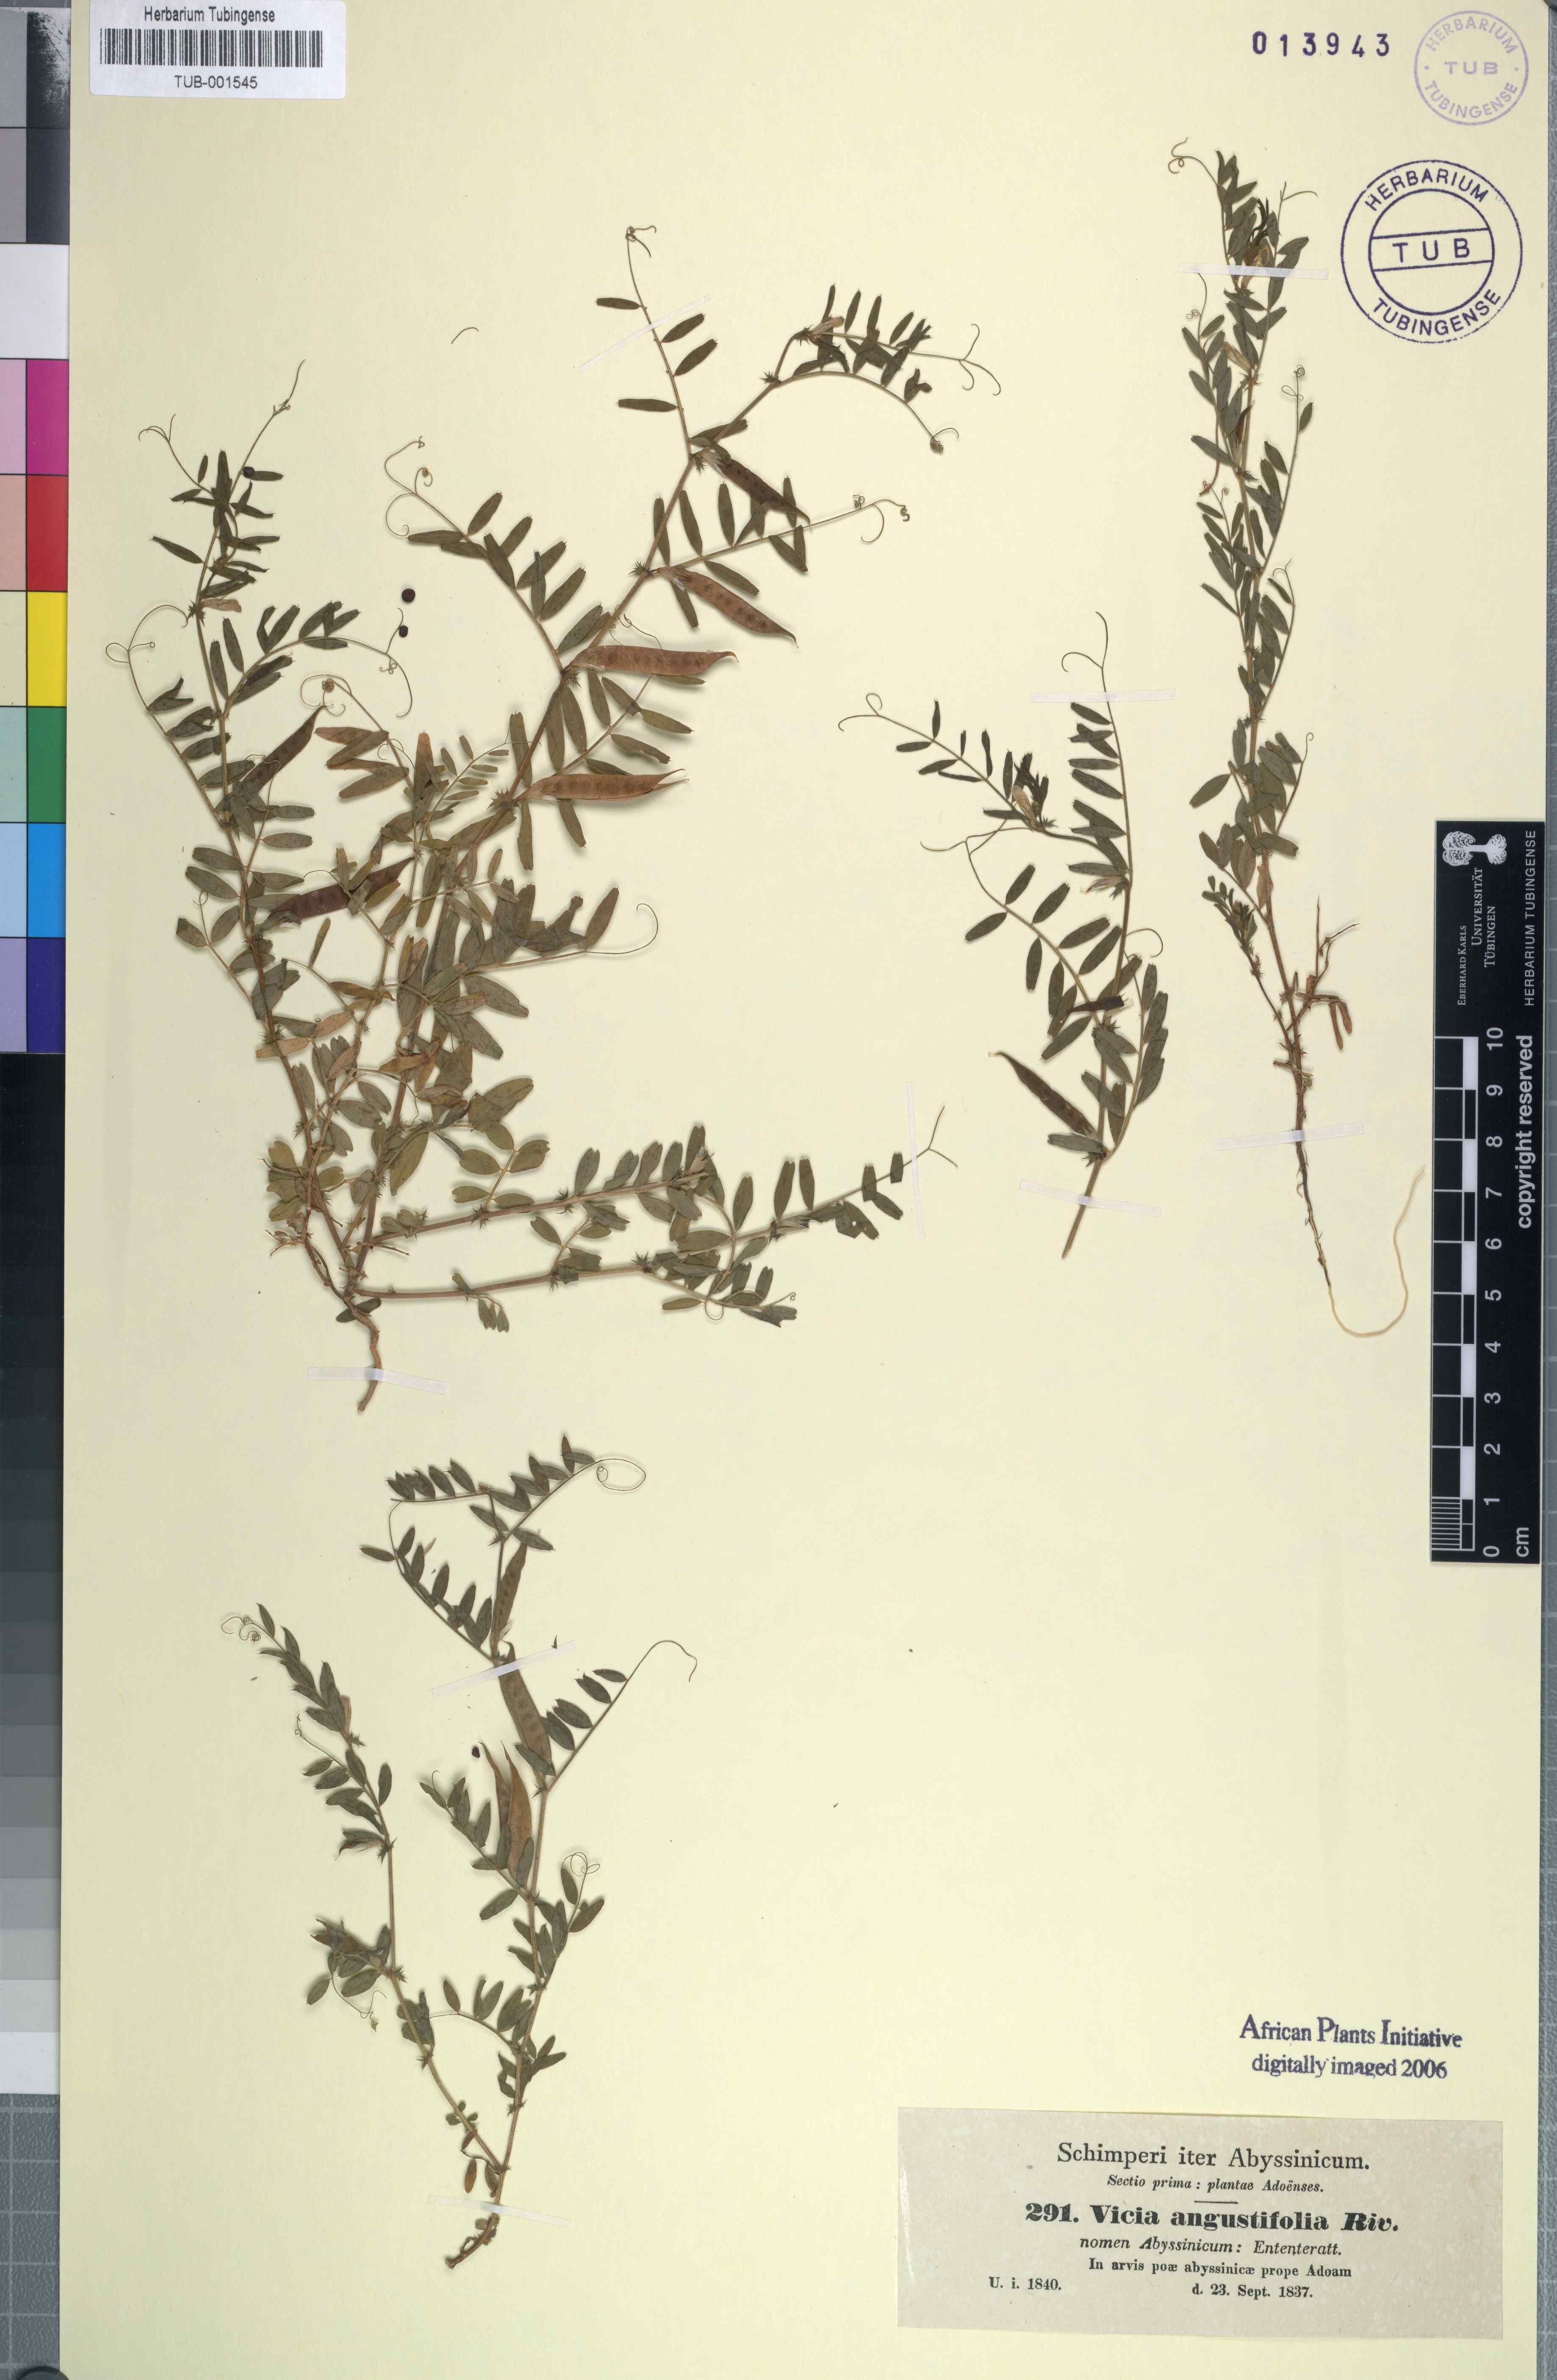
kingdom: Plantae
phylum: Tracheophyta
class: Magnoliopsida
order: Fabales
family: Fabaceae
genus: Vicia
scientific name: Vicia sativa
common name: Garden vetch
